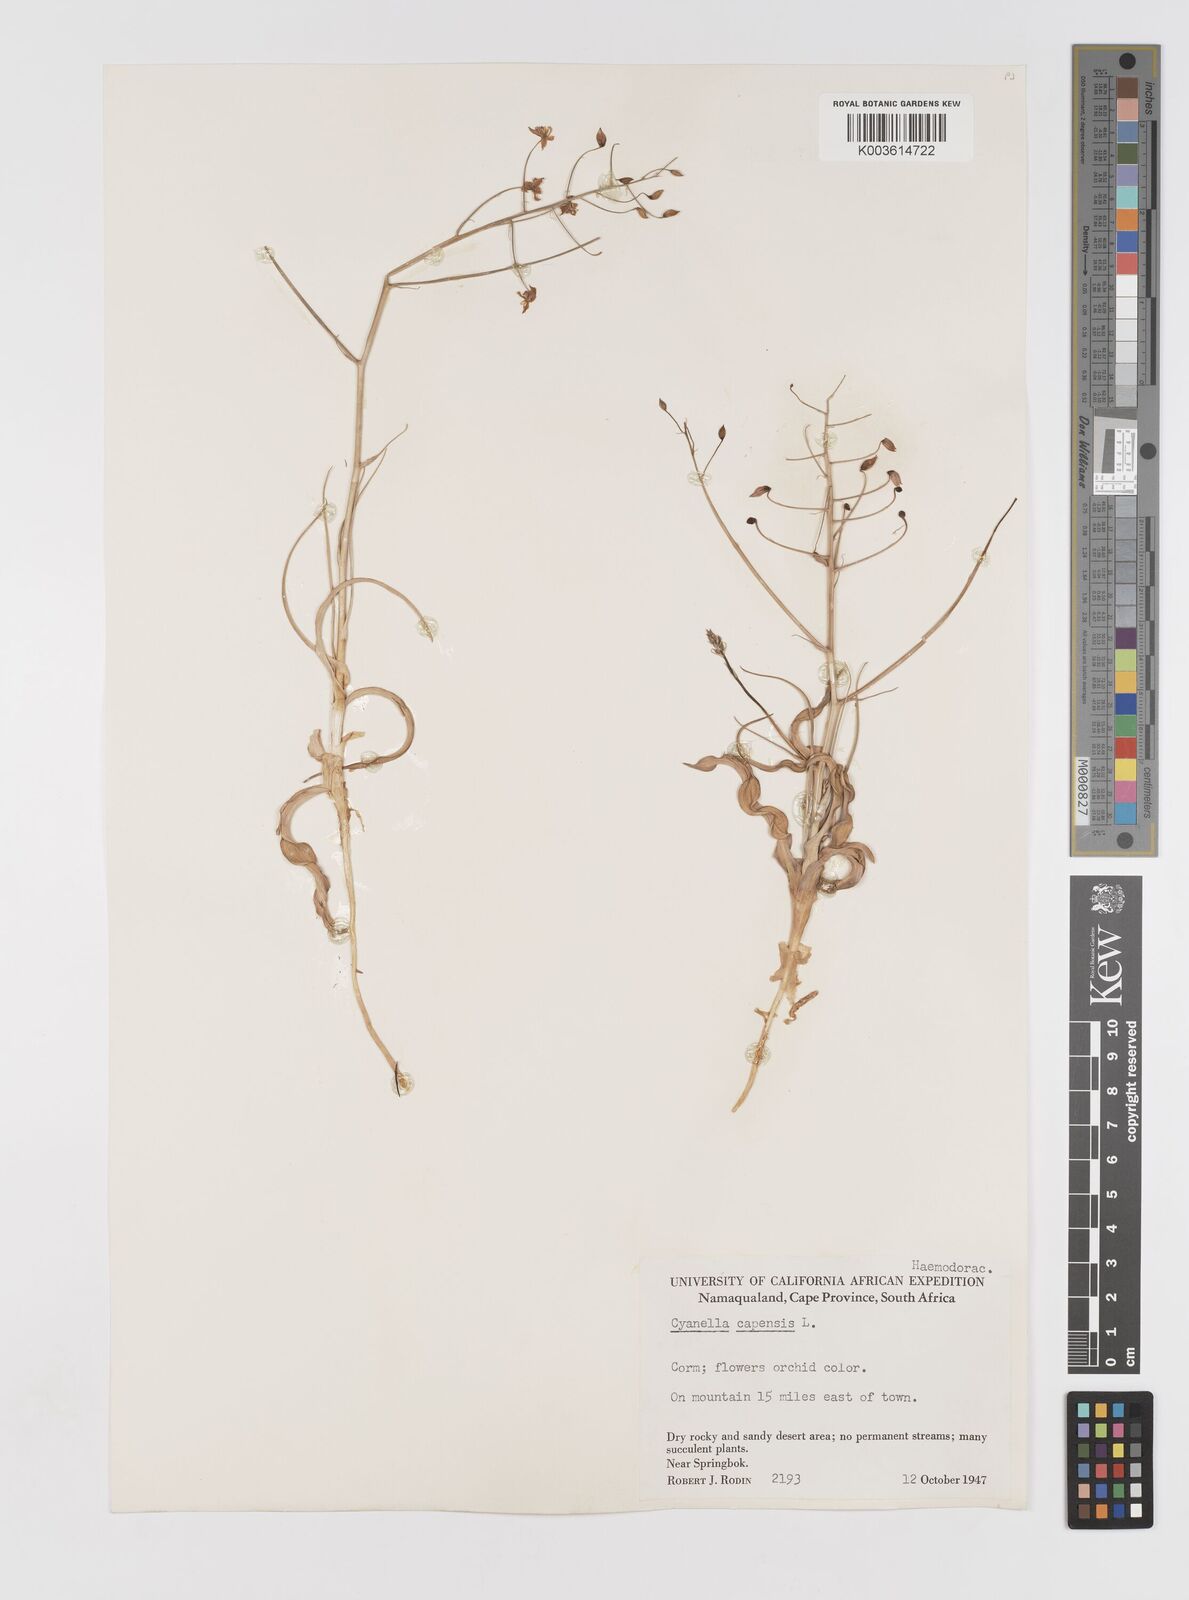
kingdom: Plantae
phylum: Tracheophyta
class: Liliopsida
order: Asparagales
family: Tecophilaeaceae
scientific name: Tecophilaeaceae
